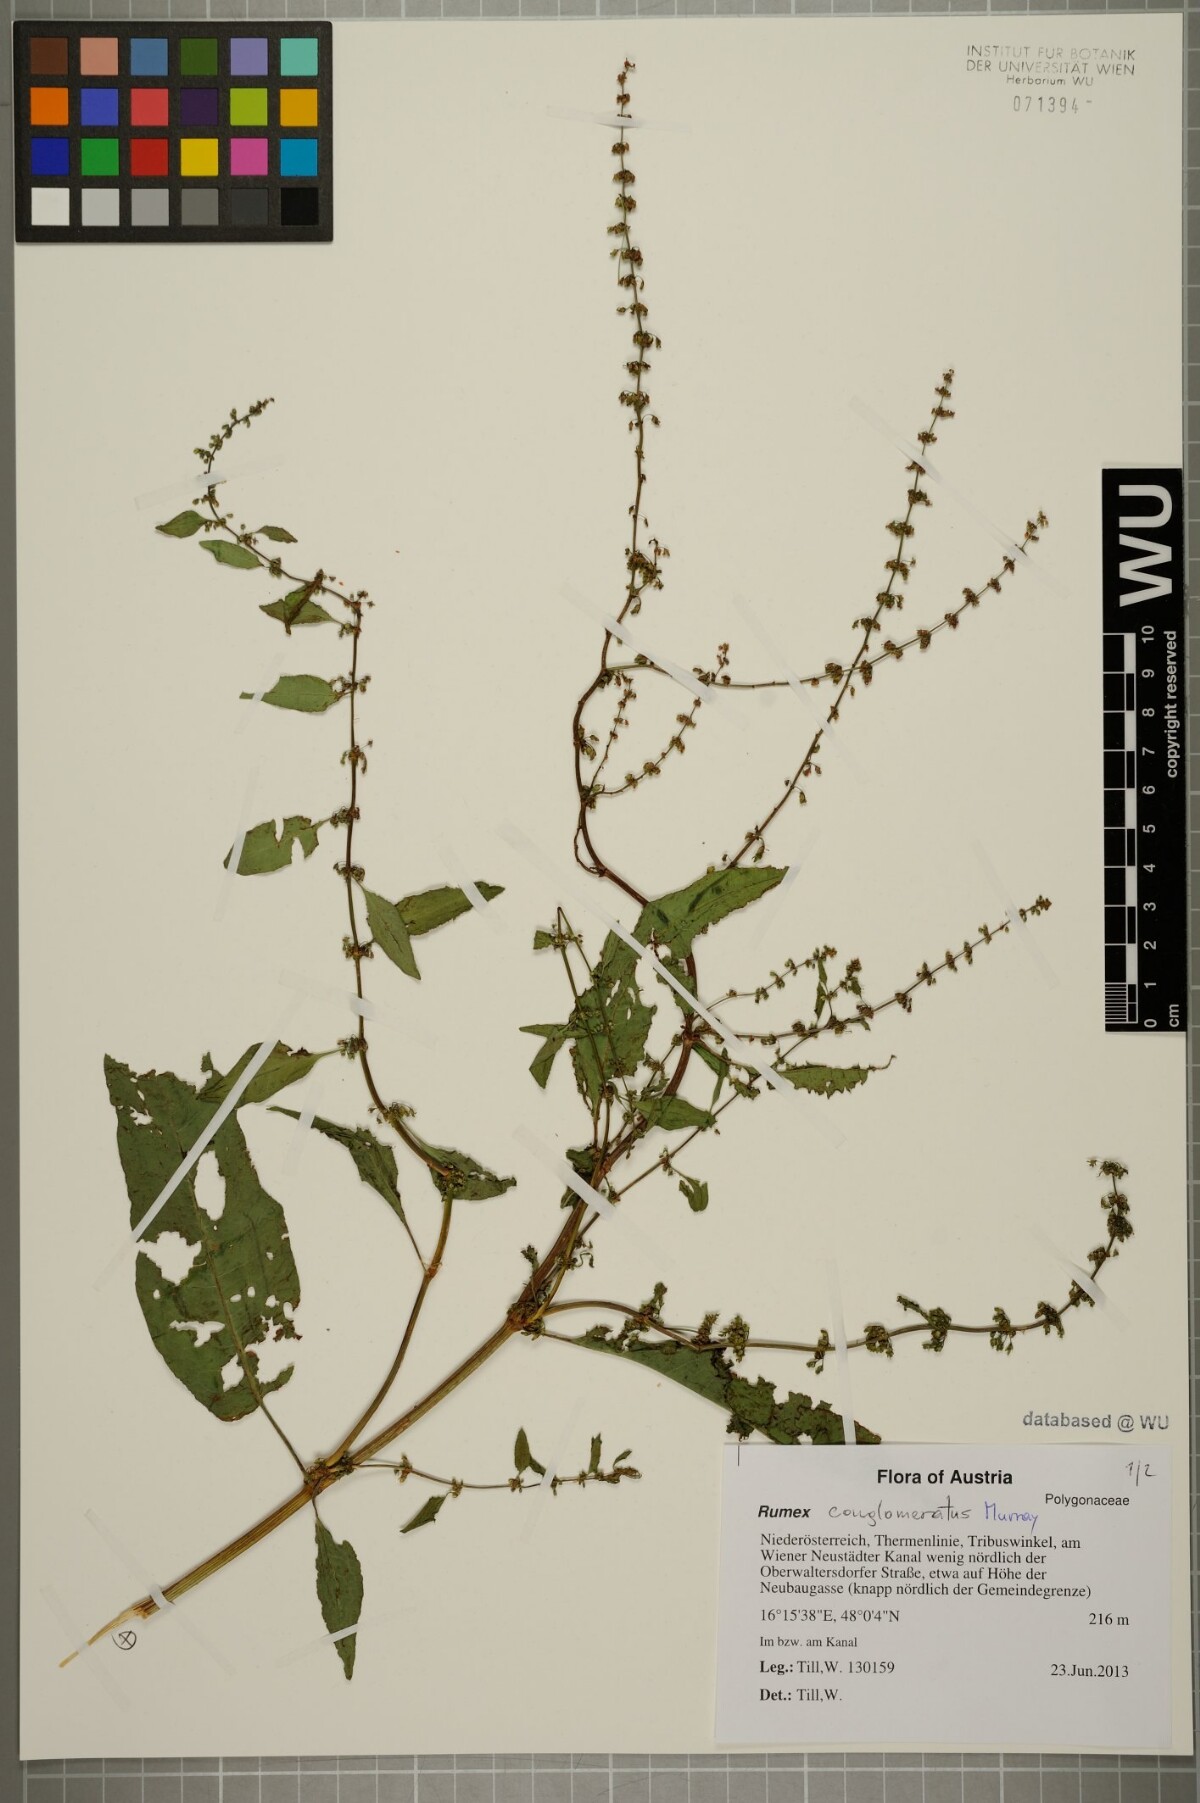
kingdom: Plantae
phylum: Tracheophyta
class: Magnoliopsida
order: Caryophyllales
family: Polygonaceae
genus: Rumex
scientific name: Rumex conglomeratus
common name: Clustered dock
